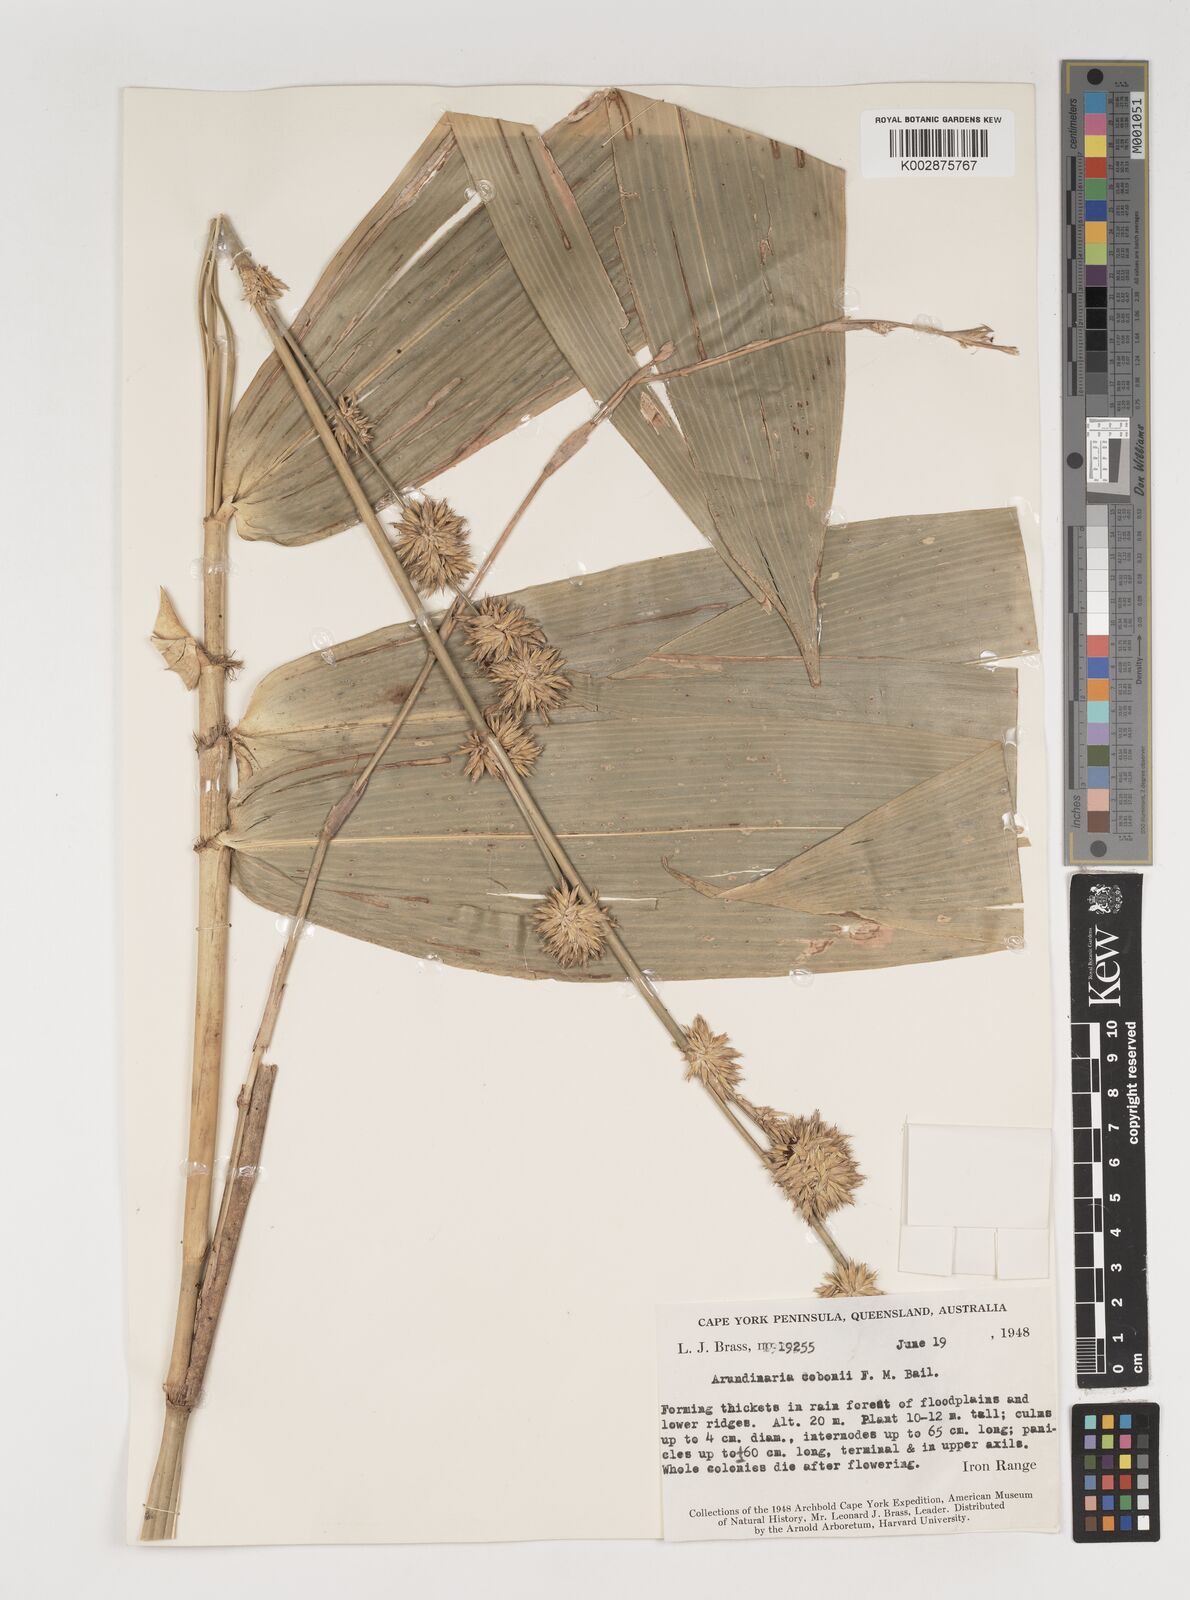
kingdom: Plantae
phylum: Tracheophyta
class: Liliopsida
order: Poales
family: Poaceae
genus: Neololeba
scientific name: Neololeba atra
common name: Cape bamboo
